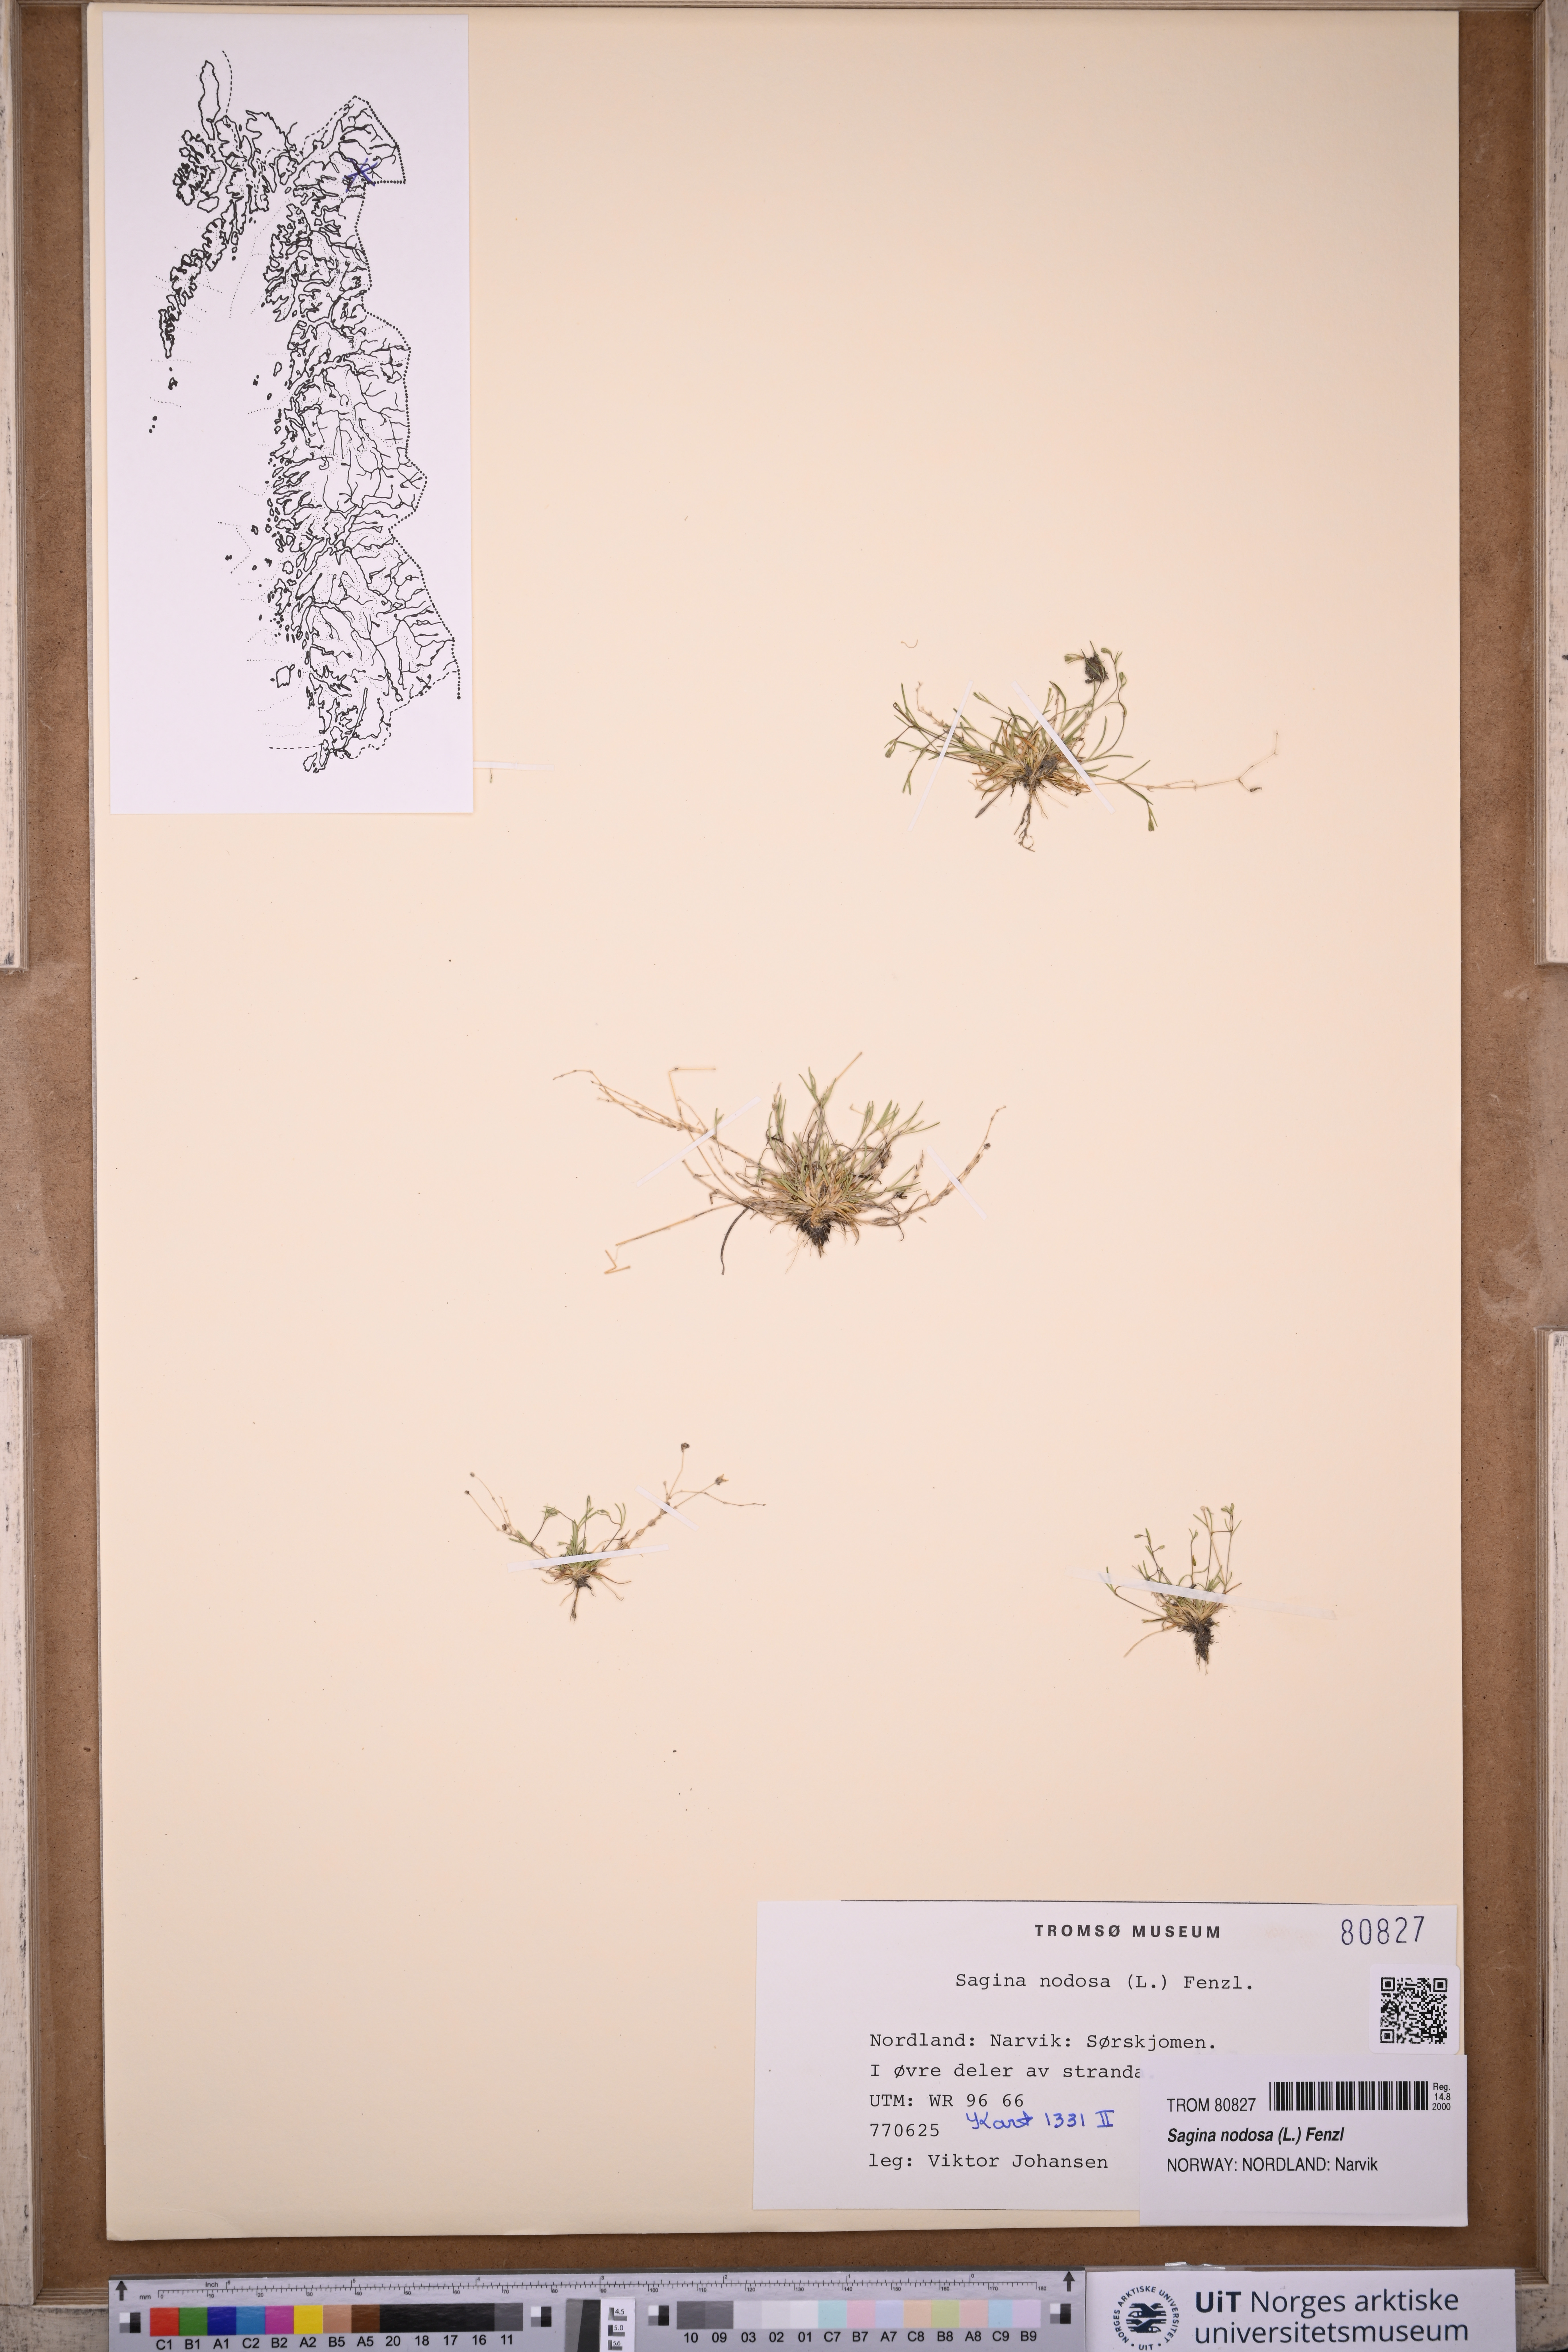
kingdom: Plantae
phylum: Tracheophyta
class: Magnoliopsida
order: Caryophyllales
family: Caryophyllaceae
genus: Sagina
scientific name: Sagina nodosa
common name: Knotted pearlwort
